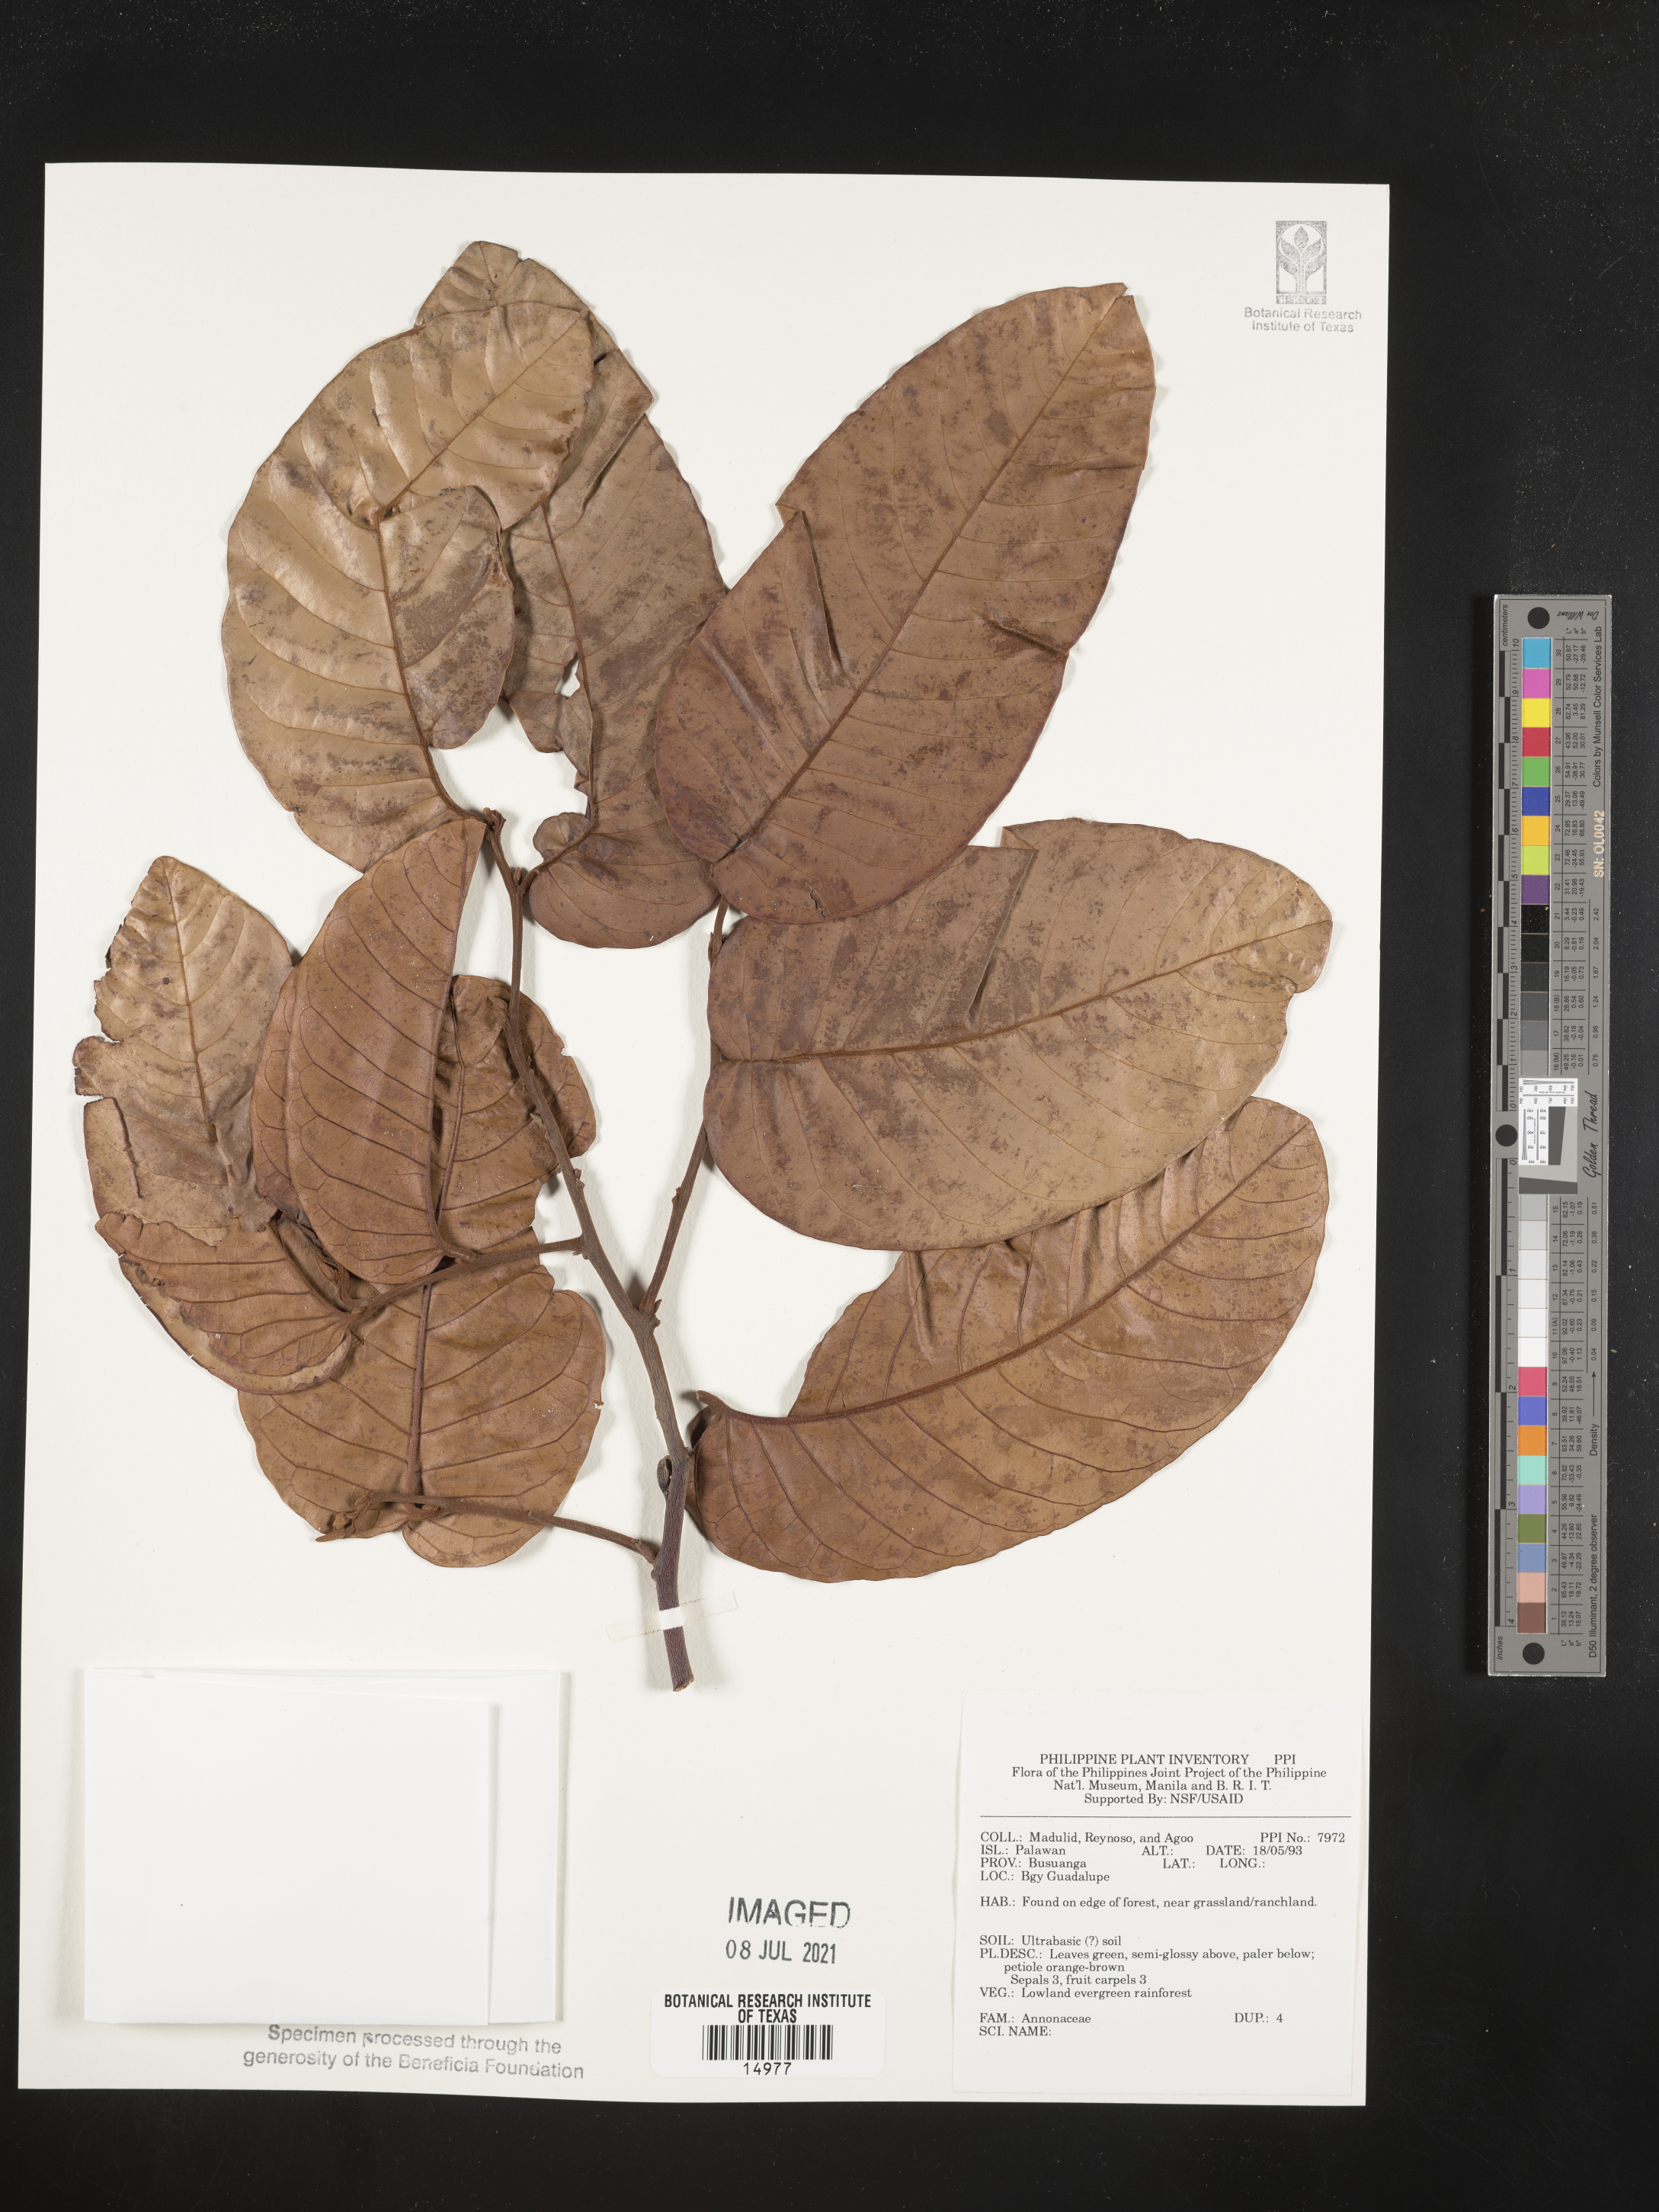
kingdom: Plantae
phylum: Tracheophyta
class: Magnoliopsida
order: Magnoliales
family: Annonaceae
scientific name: Annonaceae
